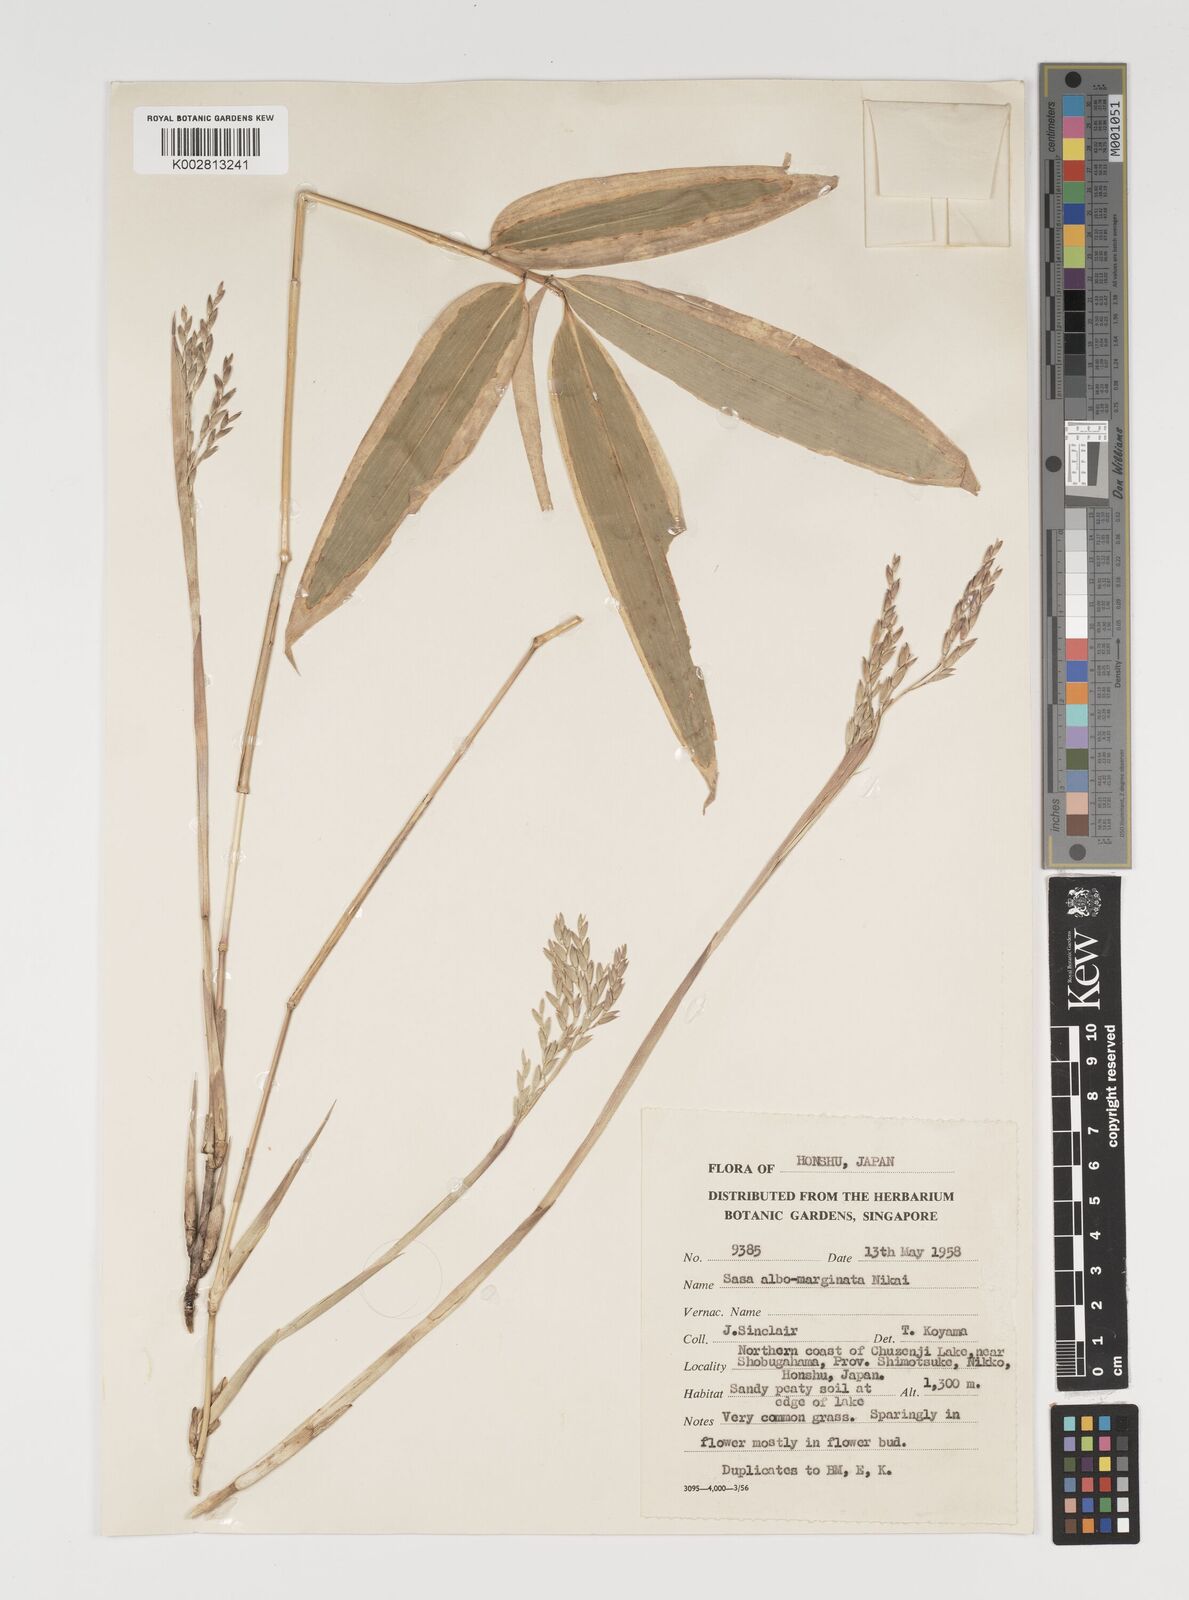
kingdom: Plantae
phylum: Tracheophyta
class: Liliopsida
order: Poales
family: Poaceae
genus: Sasa
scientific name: Sasa veitchii
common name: Veitch's bamboo
